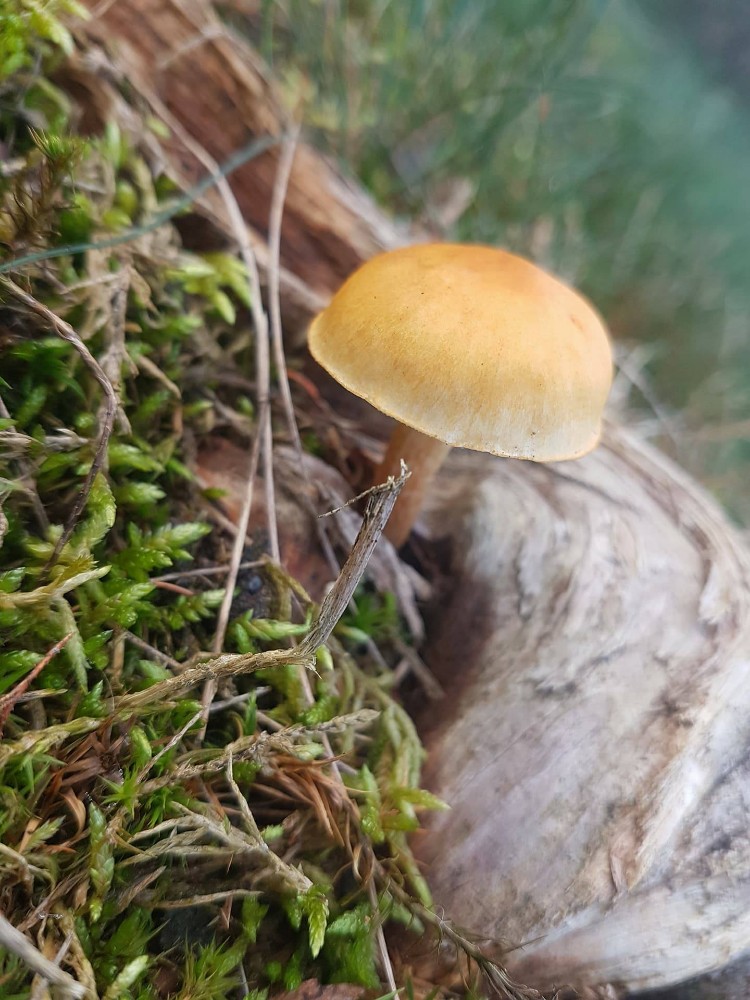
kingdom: Fungi
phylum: Basidiomycota
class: Agaricomycetes
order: Agaricales
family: Hymenogastraceae
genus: Gymnopilus
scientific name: Gymnopilus penetrans
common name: plettet flammehat
